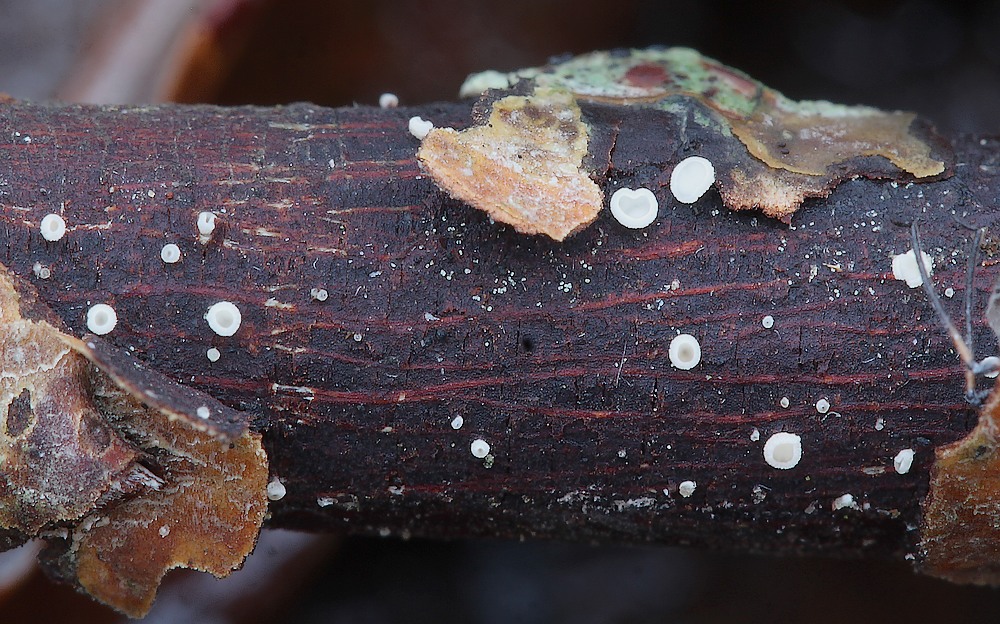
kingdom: Fungi
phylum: Ascomycota
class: Leotiomycetes
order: Helotiales
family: Pezizellaceae
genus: Calycina
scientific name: Calycina vulgaris
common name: pølsesporet gulskive
